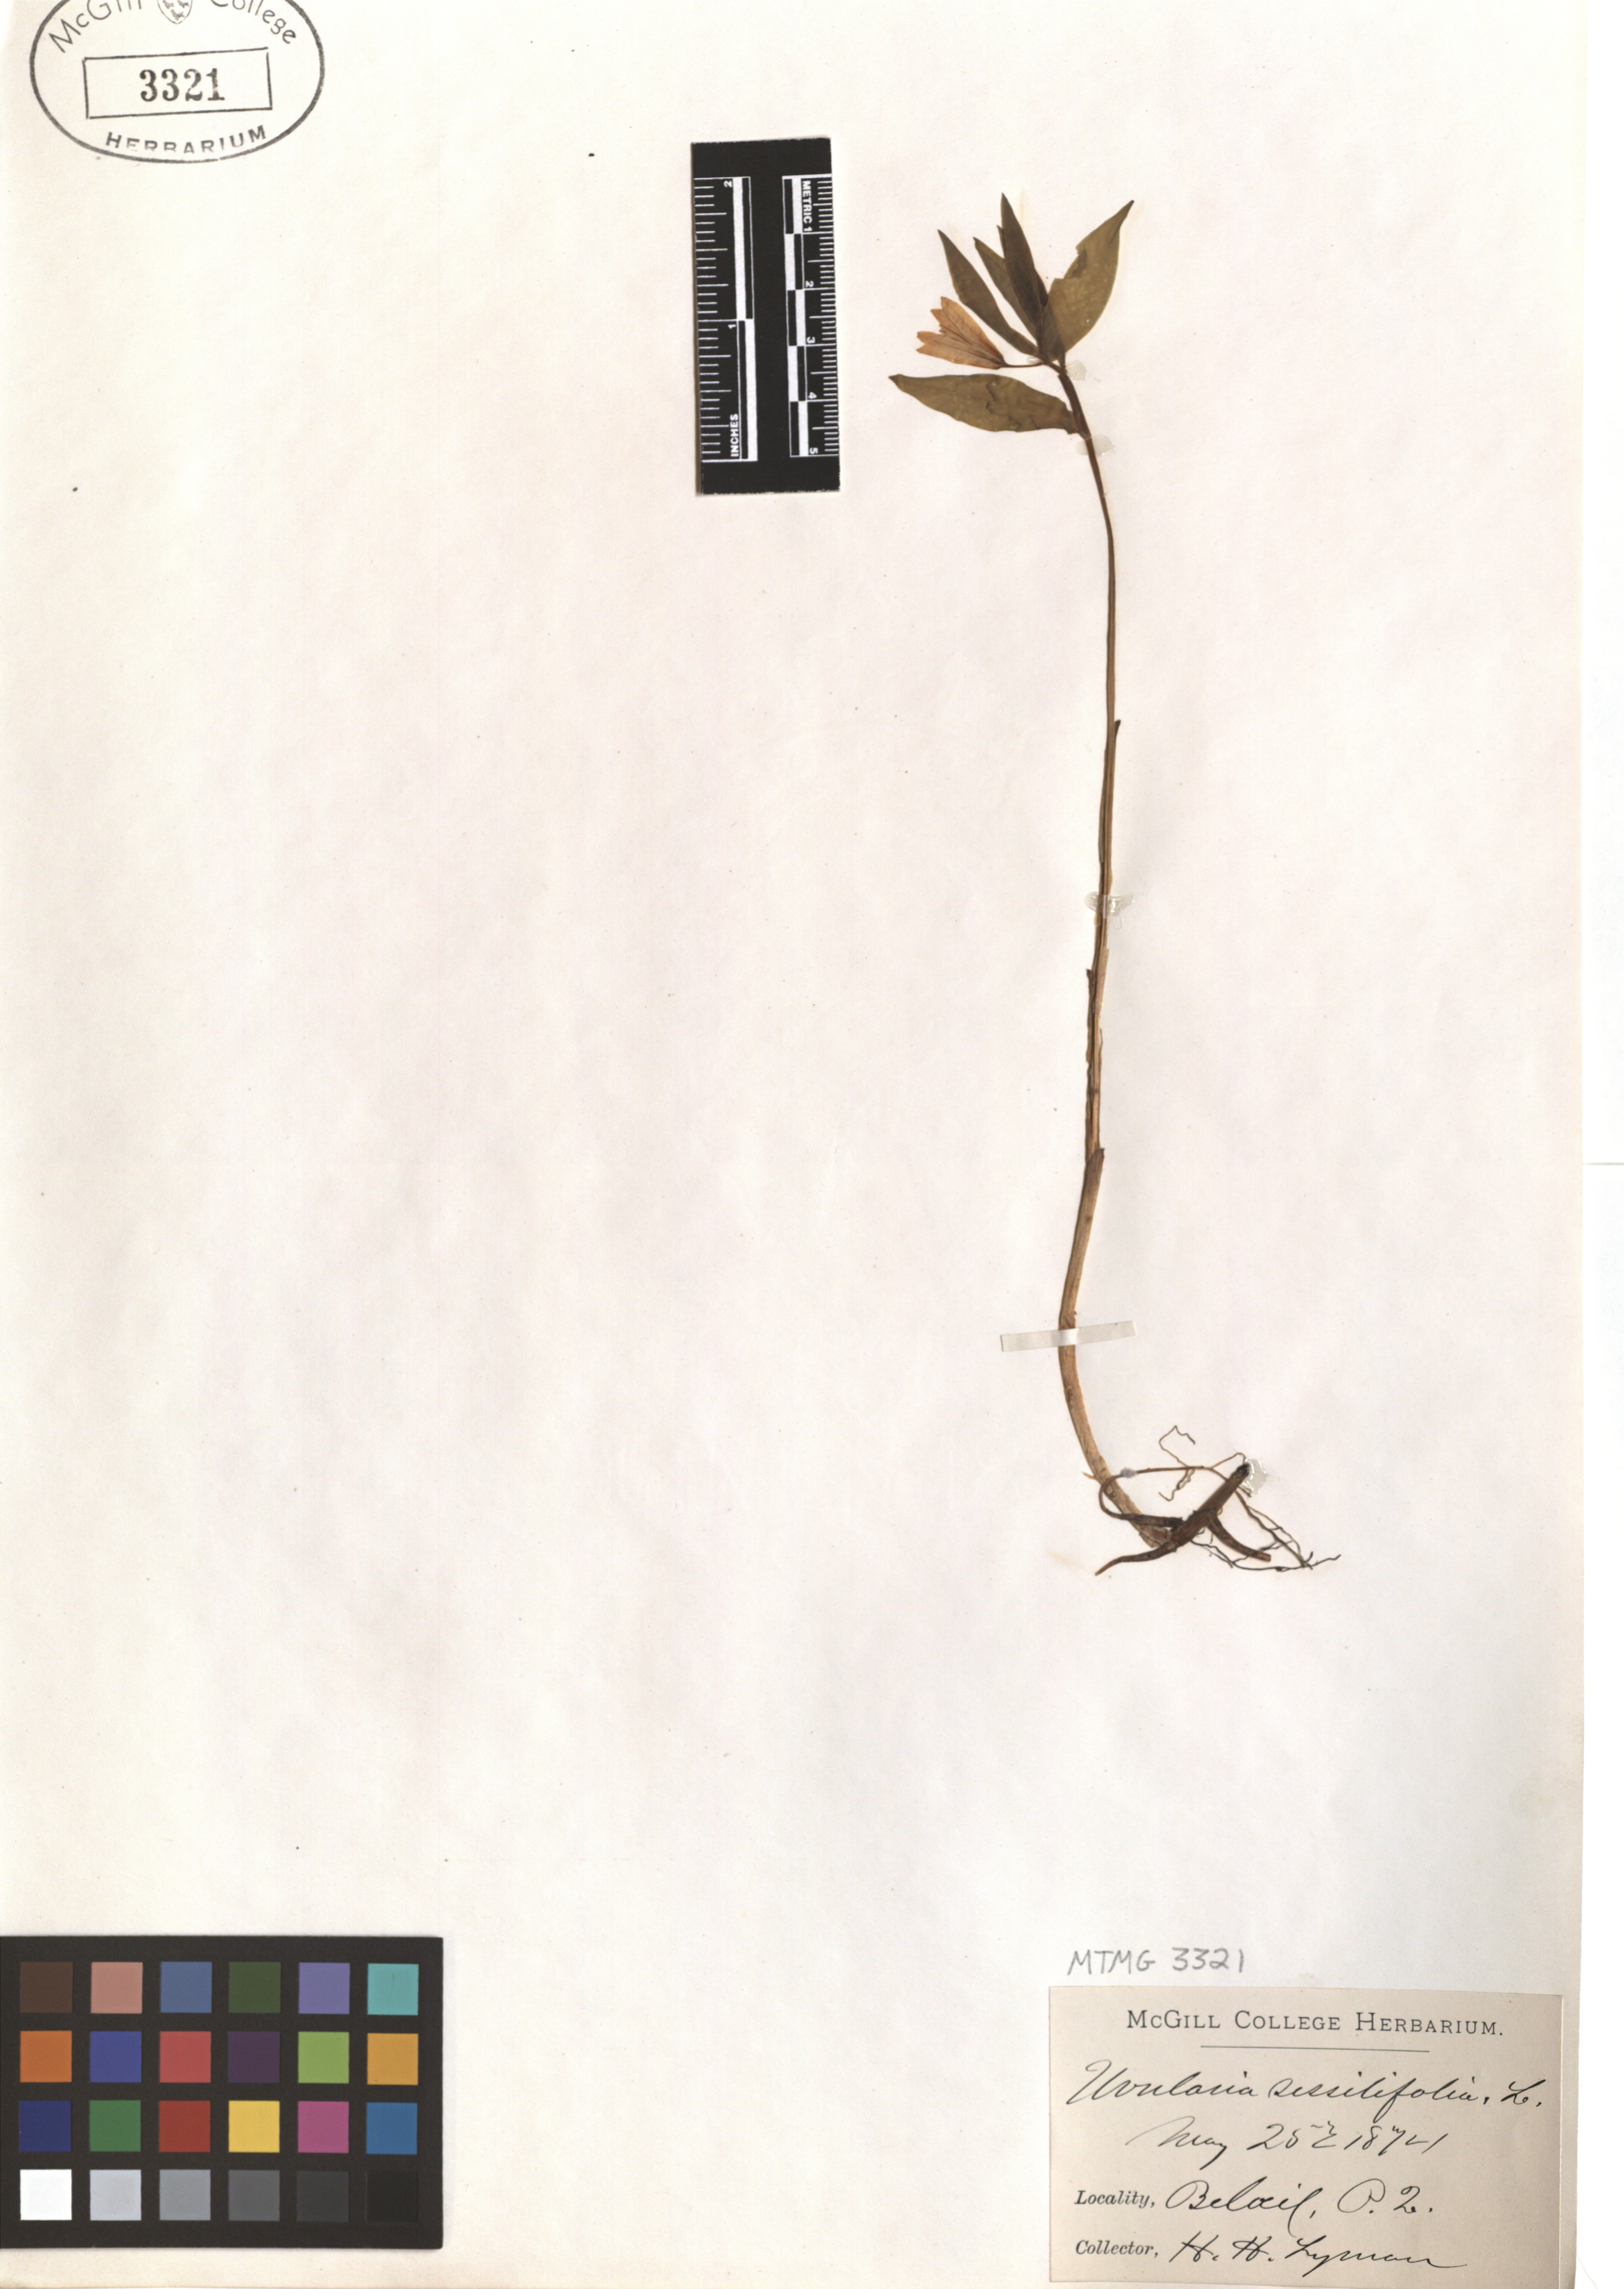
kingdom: Plantae
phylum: Tracheophyta
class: Liliopsida
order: Liliales
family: Colchicaceae
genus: Uvularia
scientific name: Uvularia sessilifolia
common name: Straw-lily
